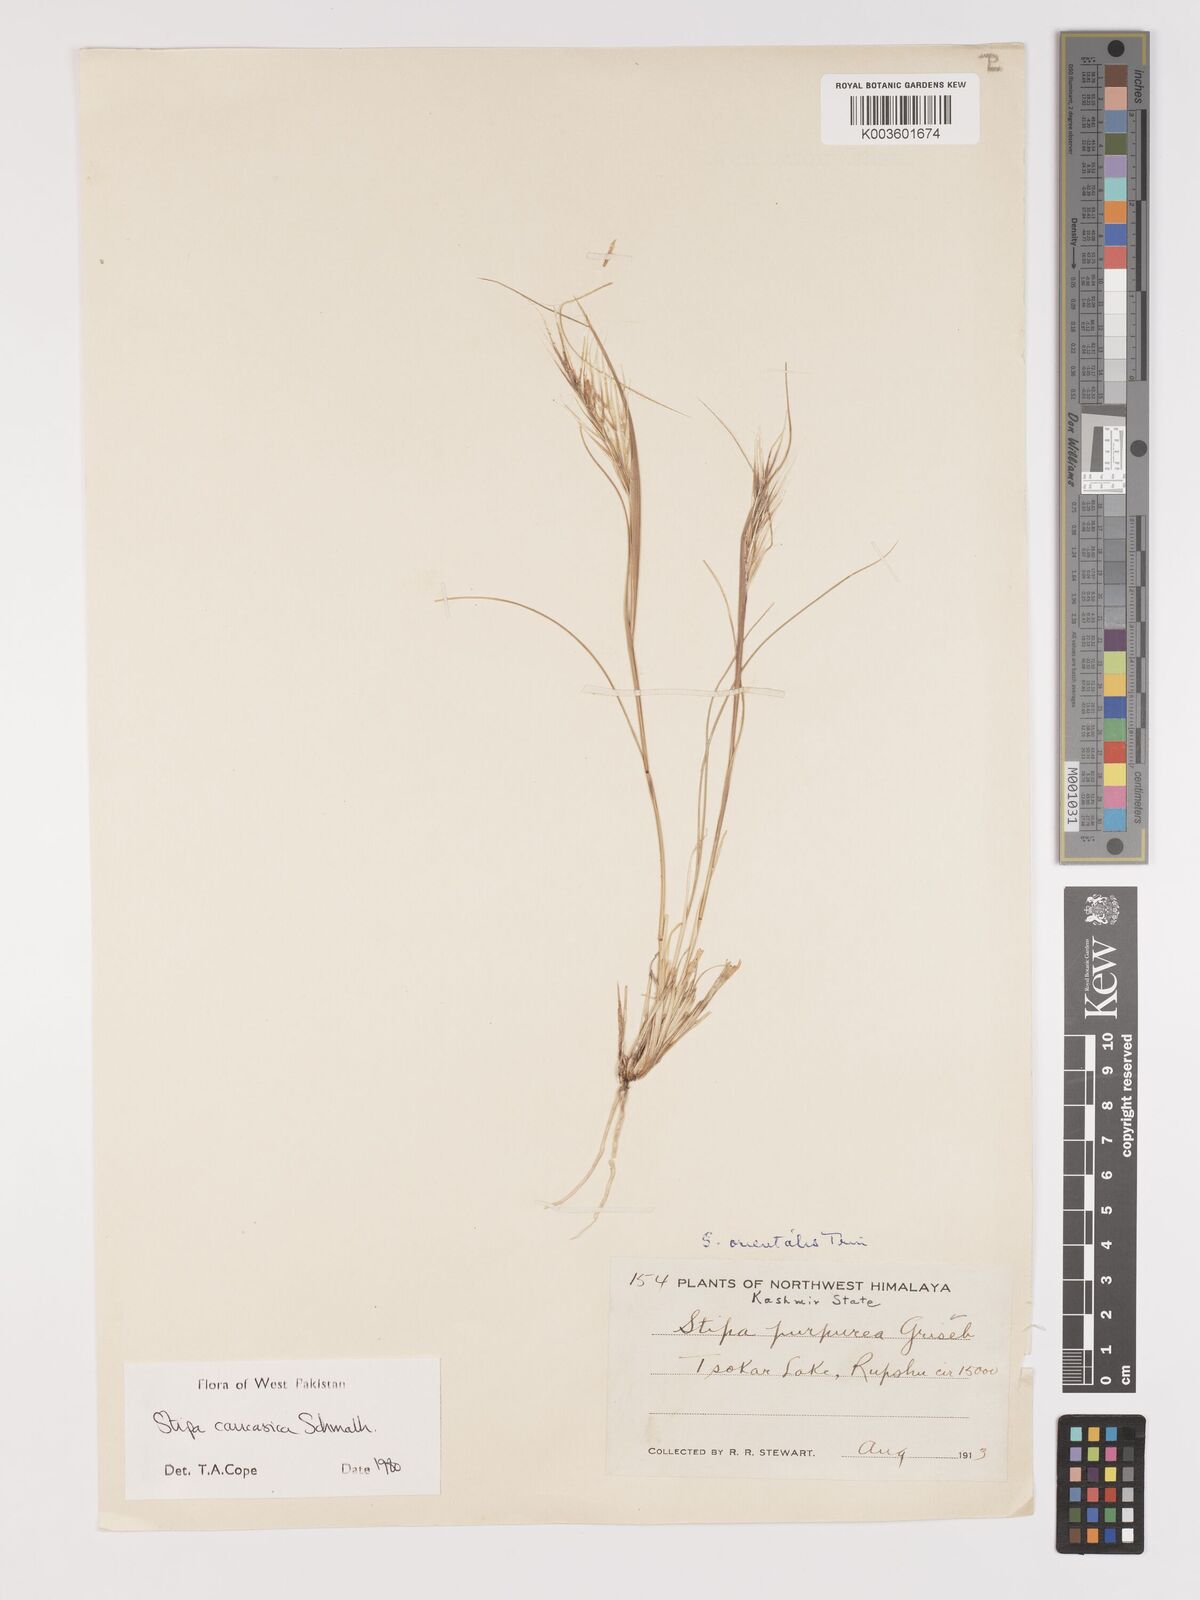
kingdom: Plantae
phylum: Tracheophyta
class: Liliopsida
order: Poales
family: Poaceae
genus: Stipa
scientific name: Stipa caucasica
